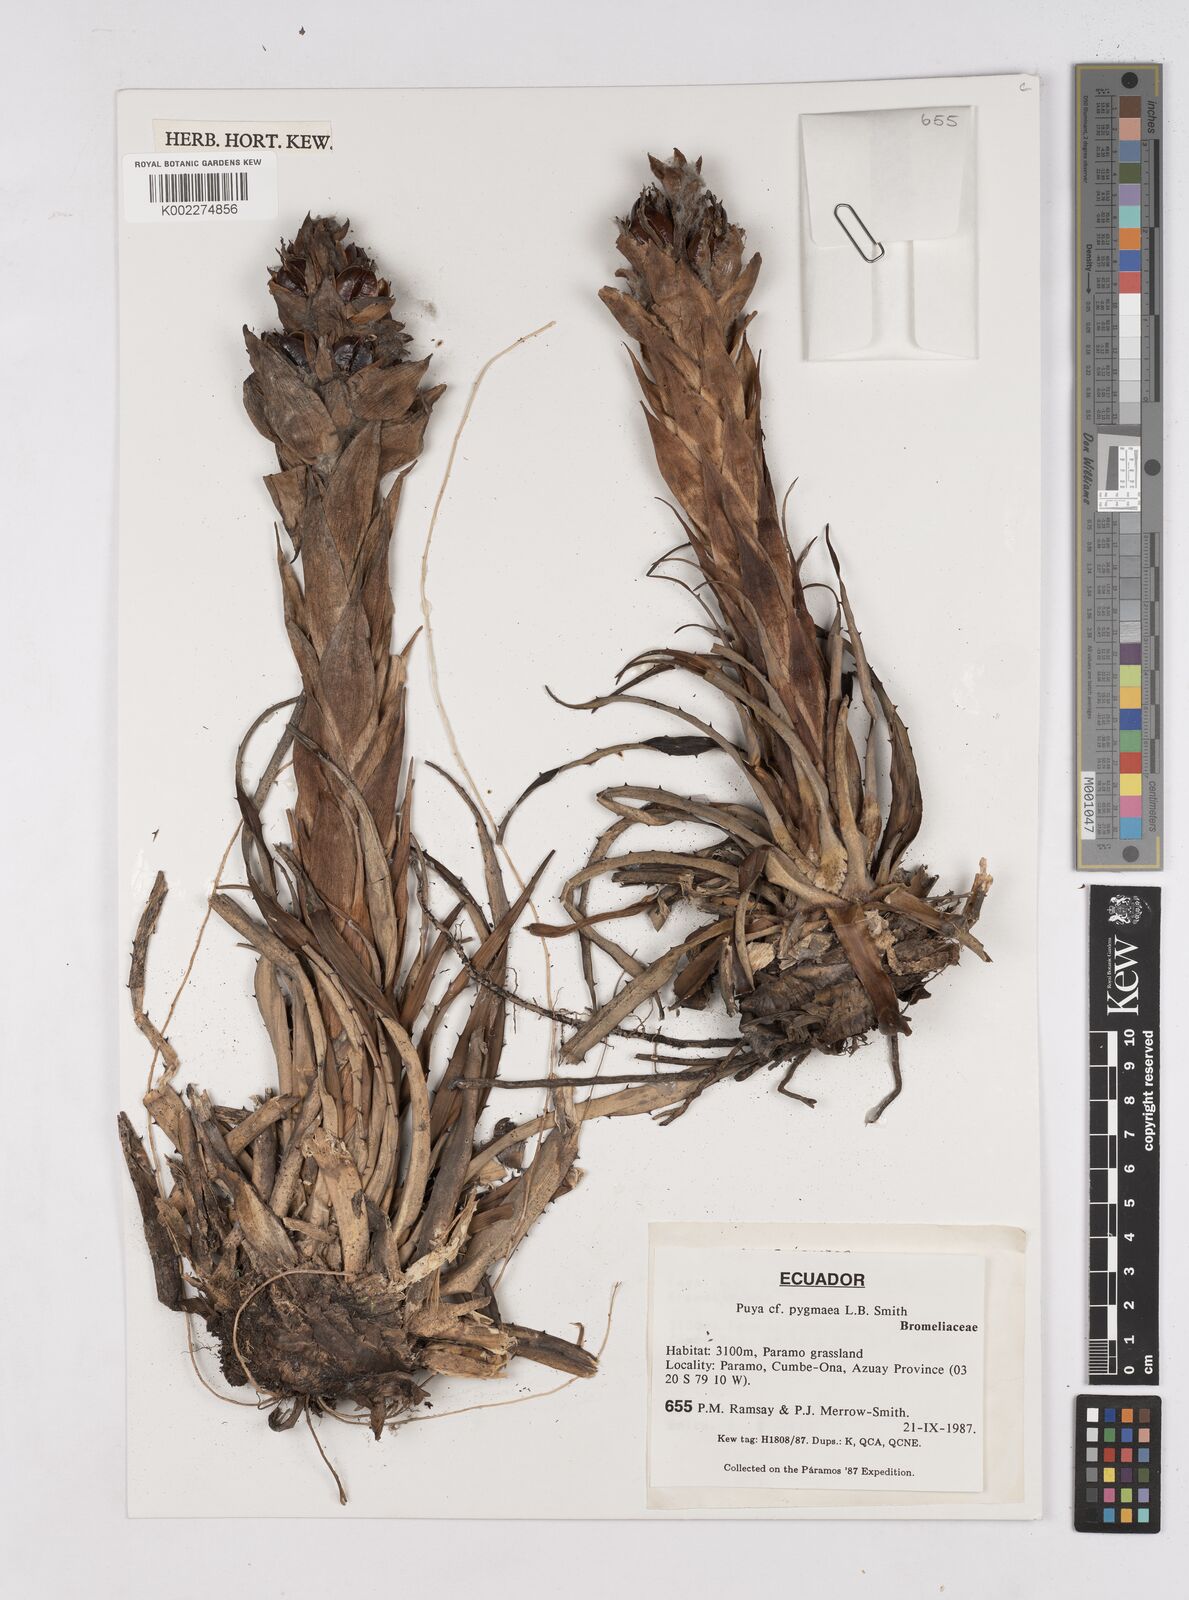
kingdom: Plantae
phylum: Tracheophyta
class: Liliopsida
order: Poales
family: Bromeliaceae
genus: Puya
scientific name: Puya pygmaea
